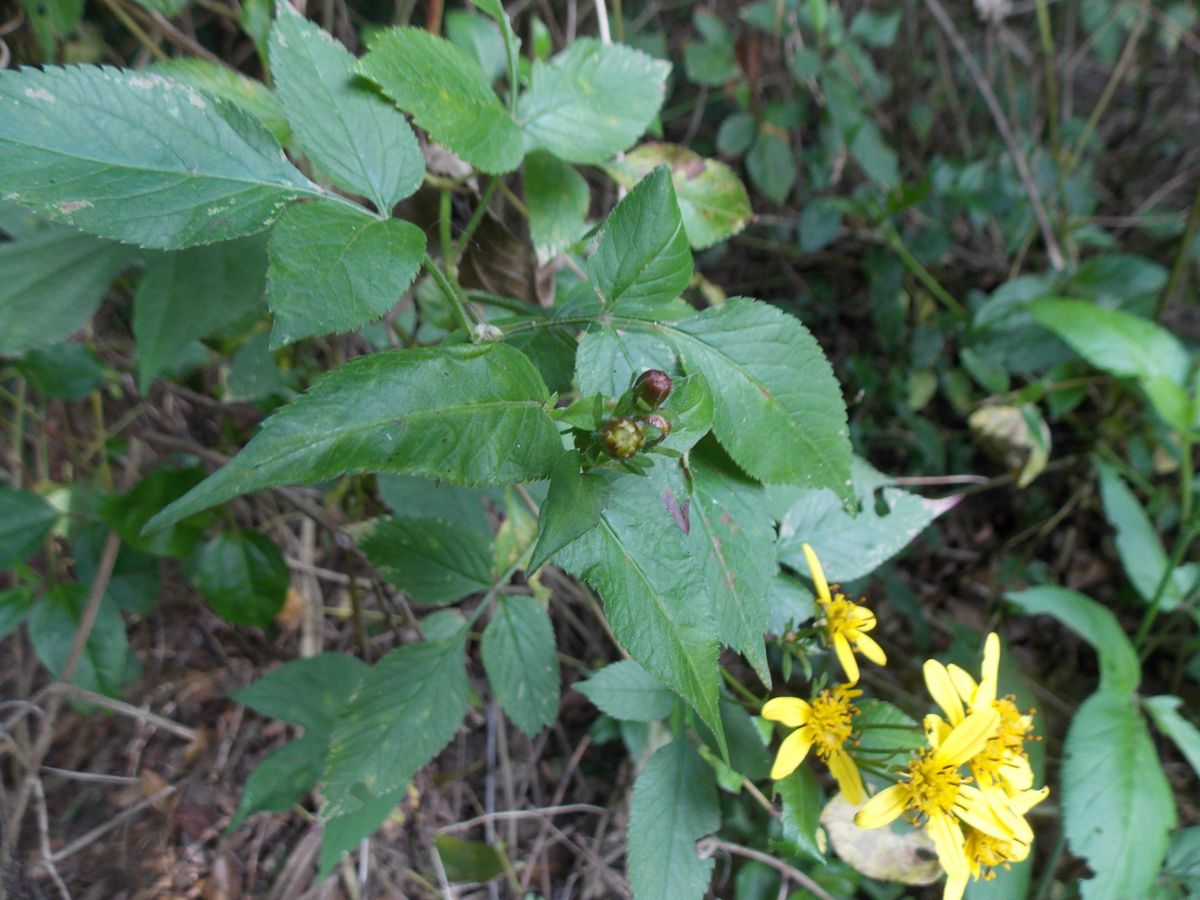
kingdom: Plantae
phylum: Tracheophyta
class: Magnoliopsida
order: Asterales
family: Asteraceae
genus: Bidens
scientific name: Bidens reptans
